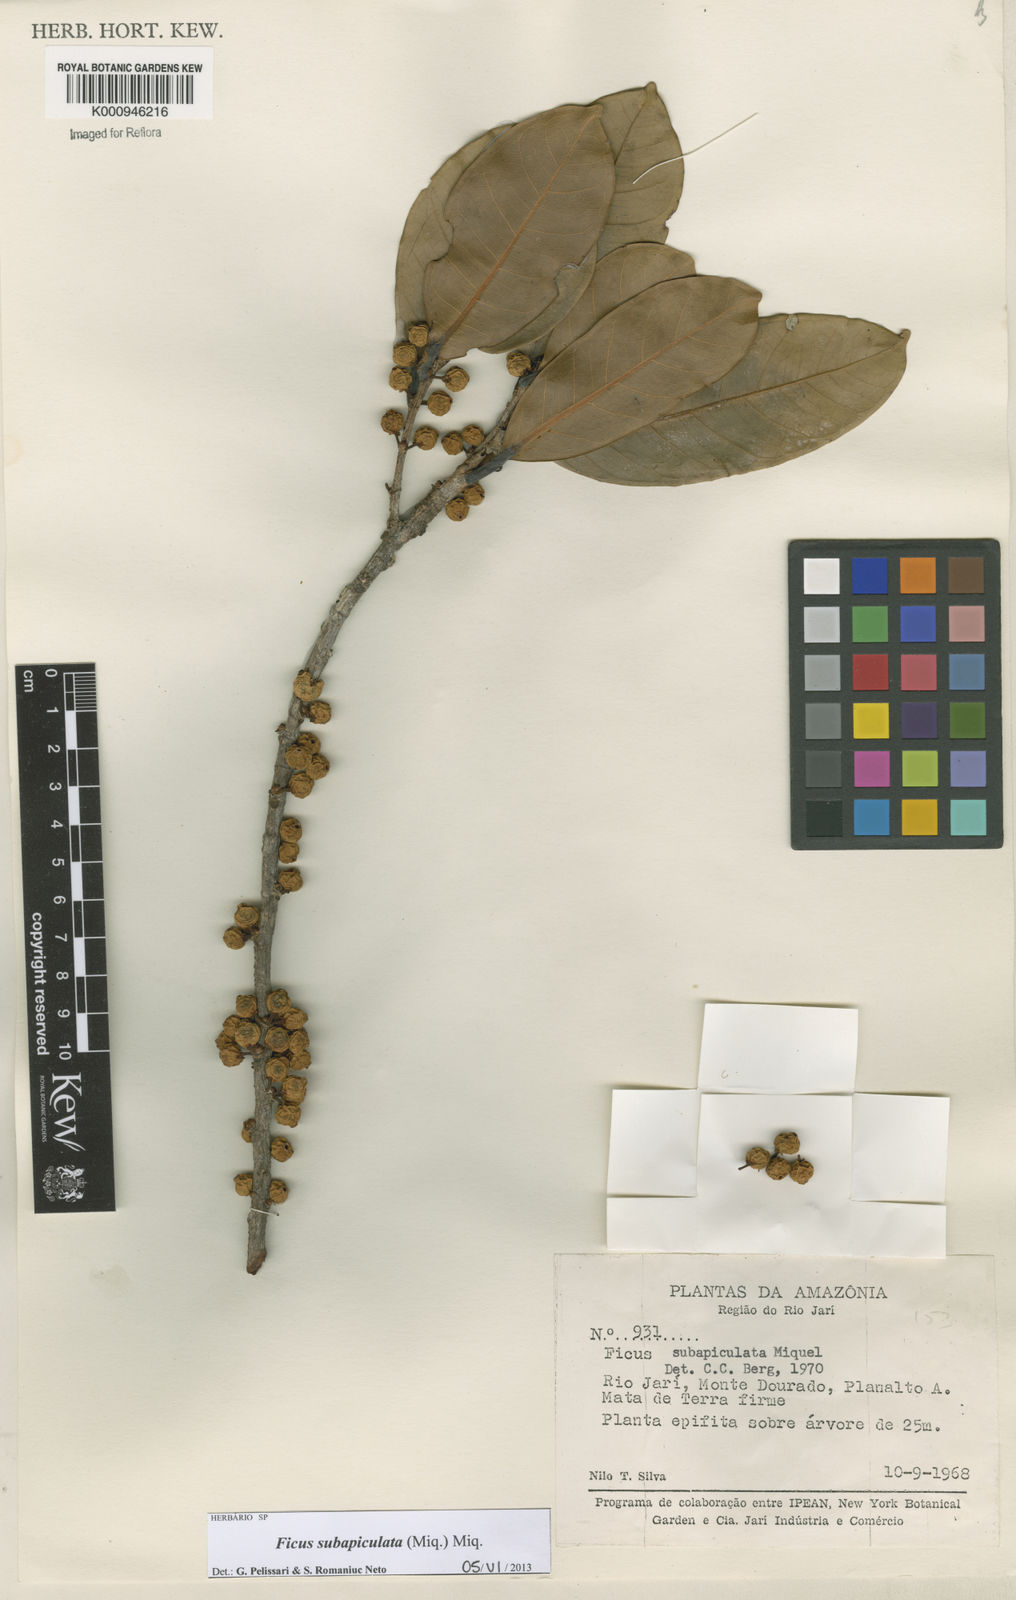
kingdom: Plantae
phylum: Tracheophyta
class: Magnoliopsida
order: Rosales
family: Moraceae
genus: Ficus
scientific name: Ficus americana
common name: Jamaican cherry fig
